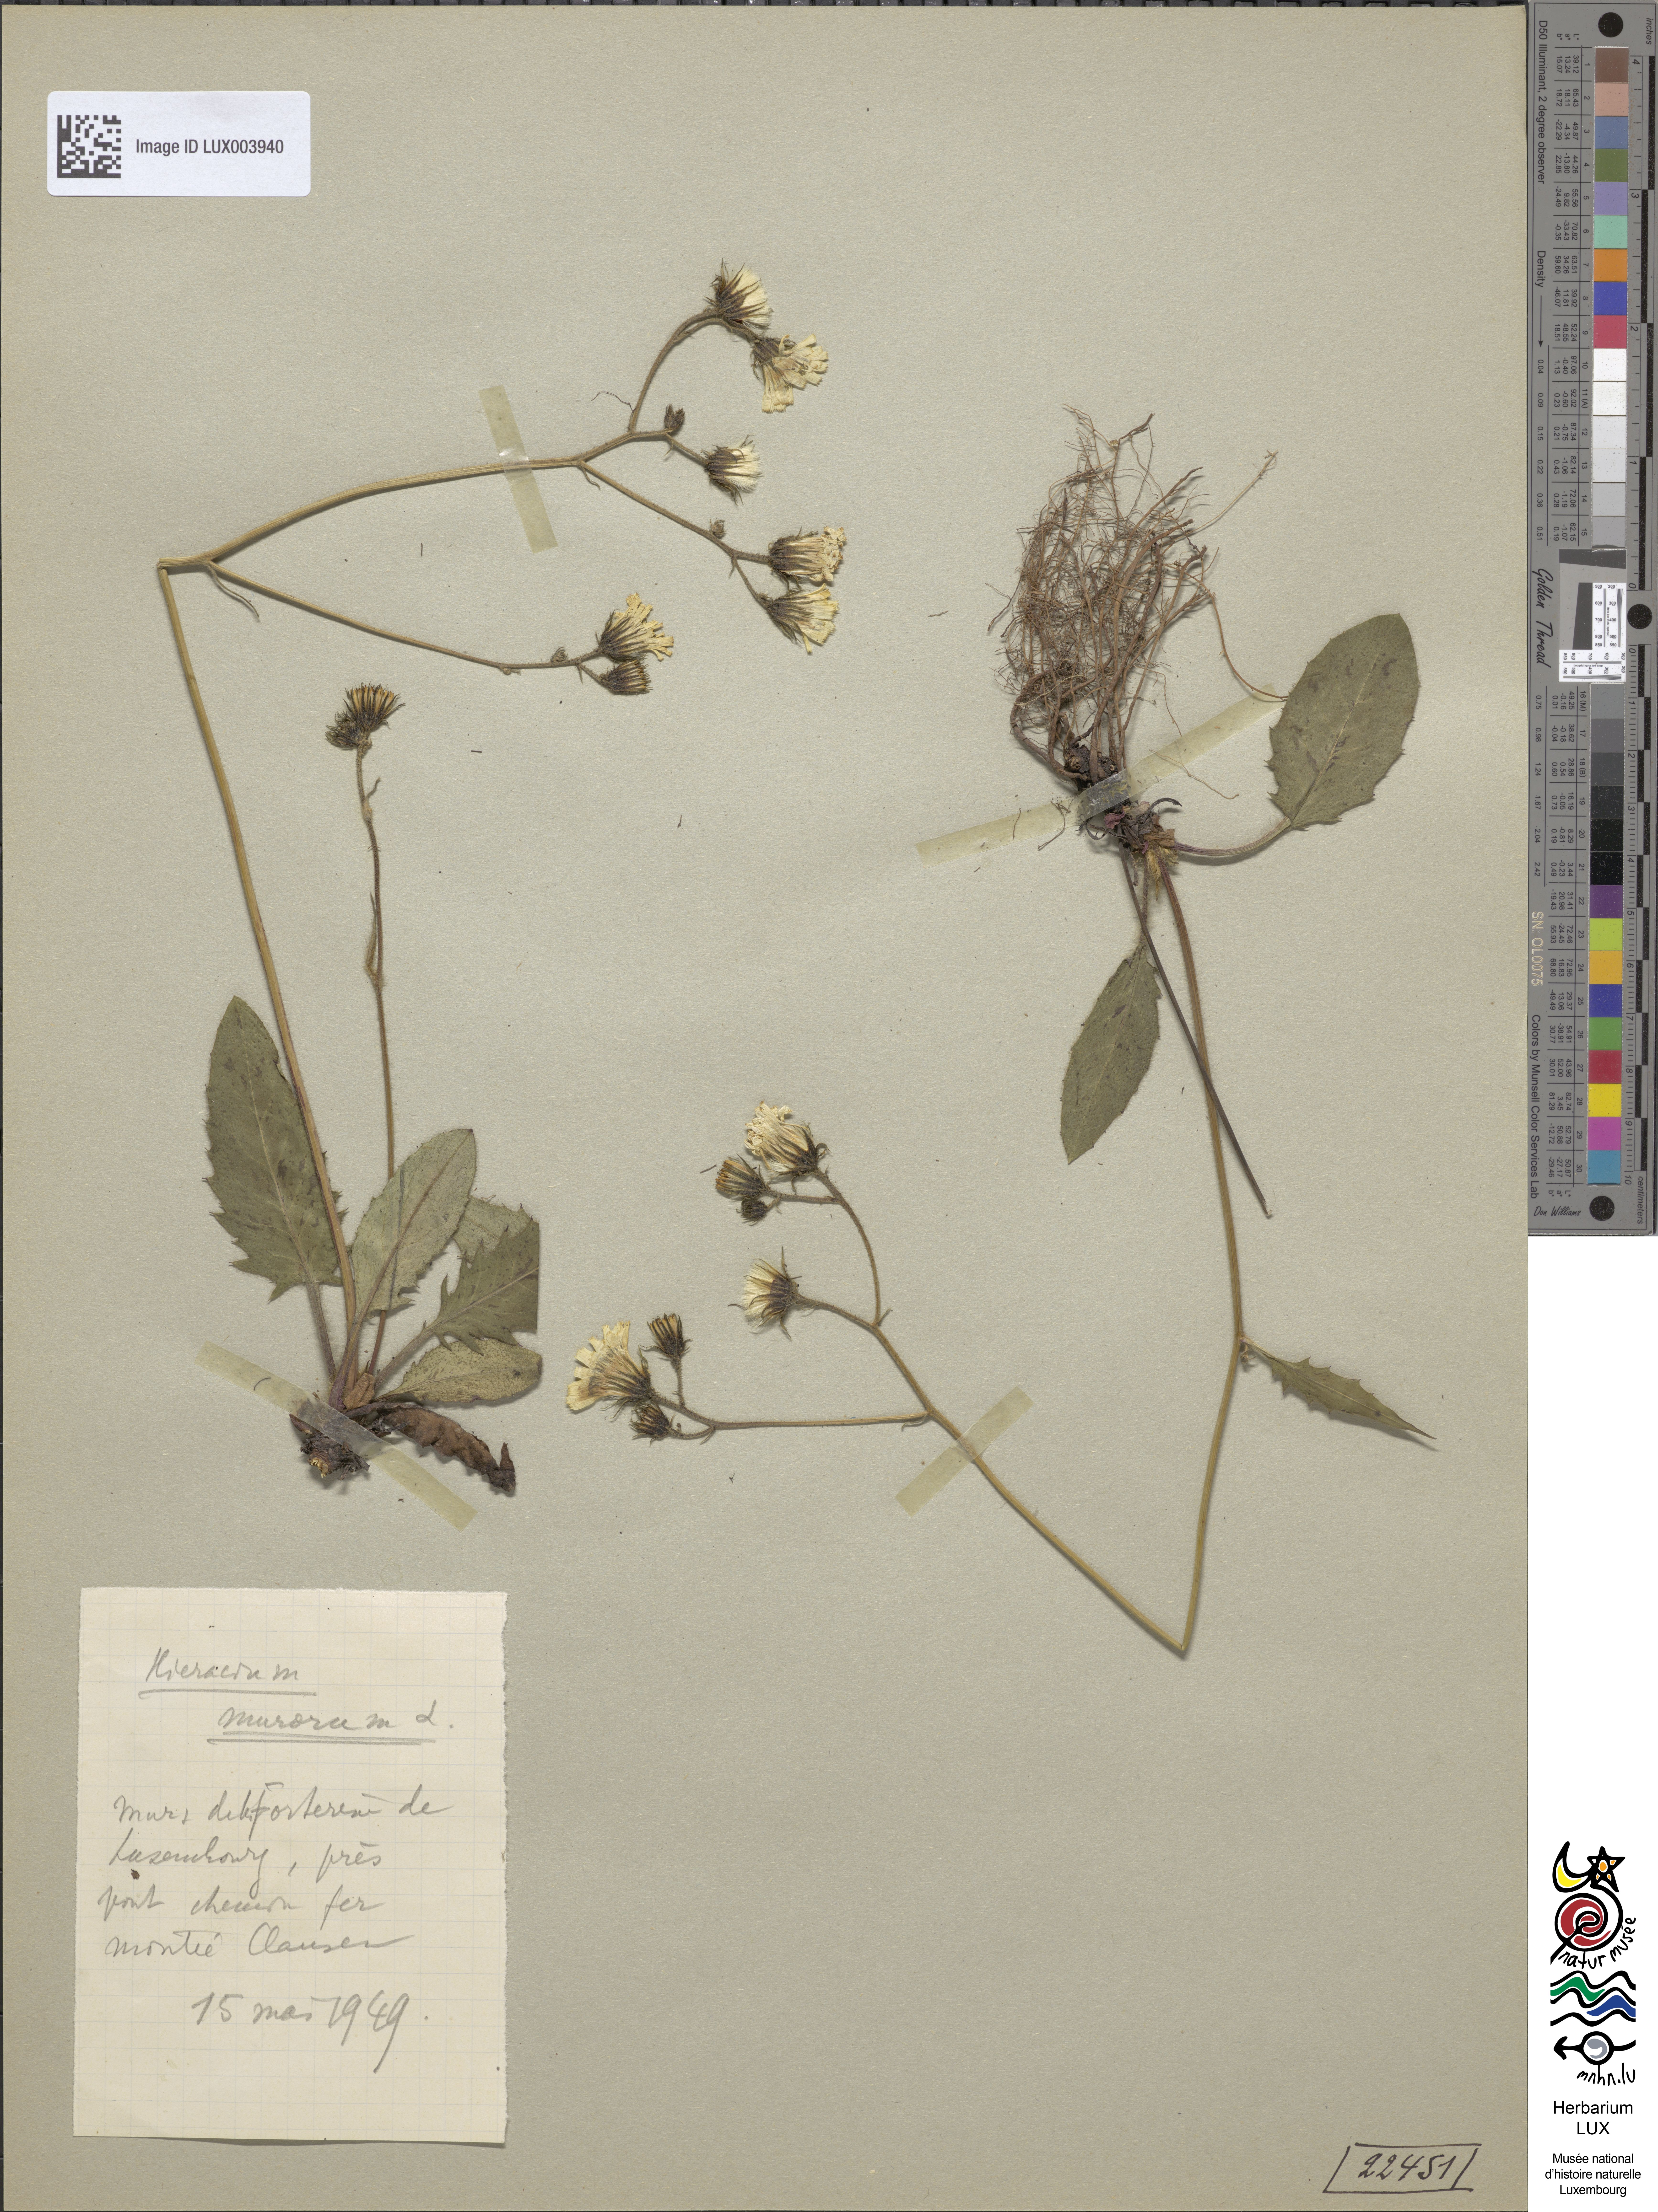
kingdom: Plantae
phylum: Tracheophyta
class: Magnoliopsida
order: Asterales
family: Asteraceae
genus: Hieracium
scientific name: Hieracium murorum
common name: Wall hawkweed
